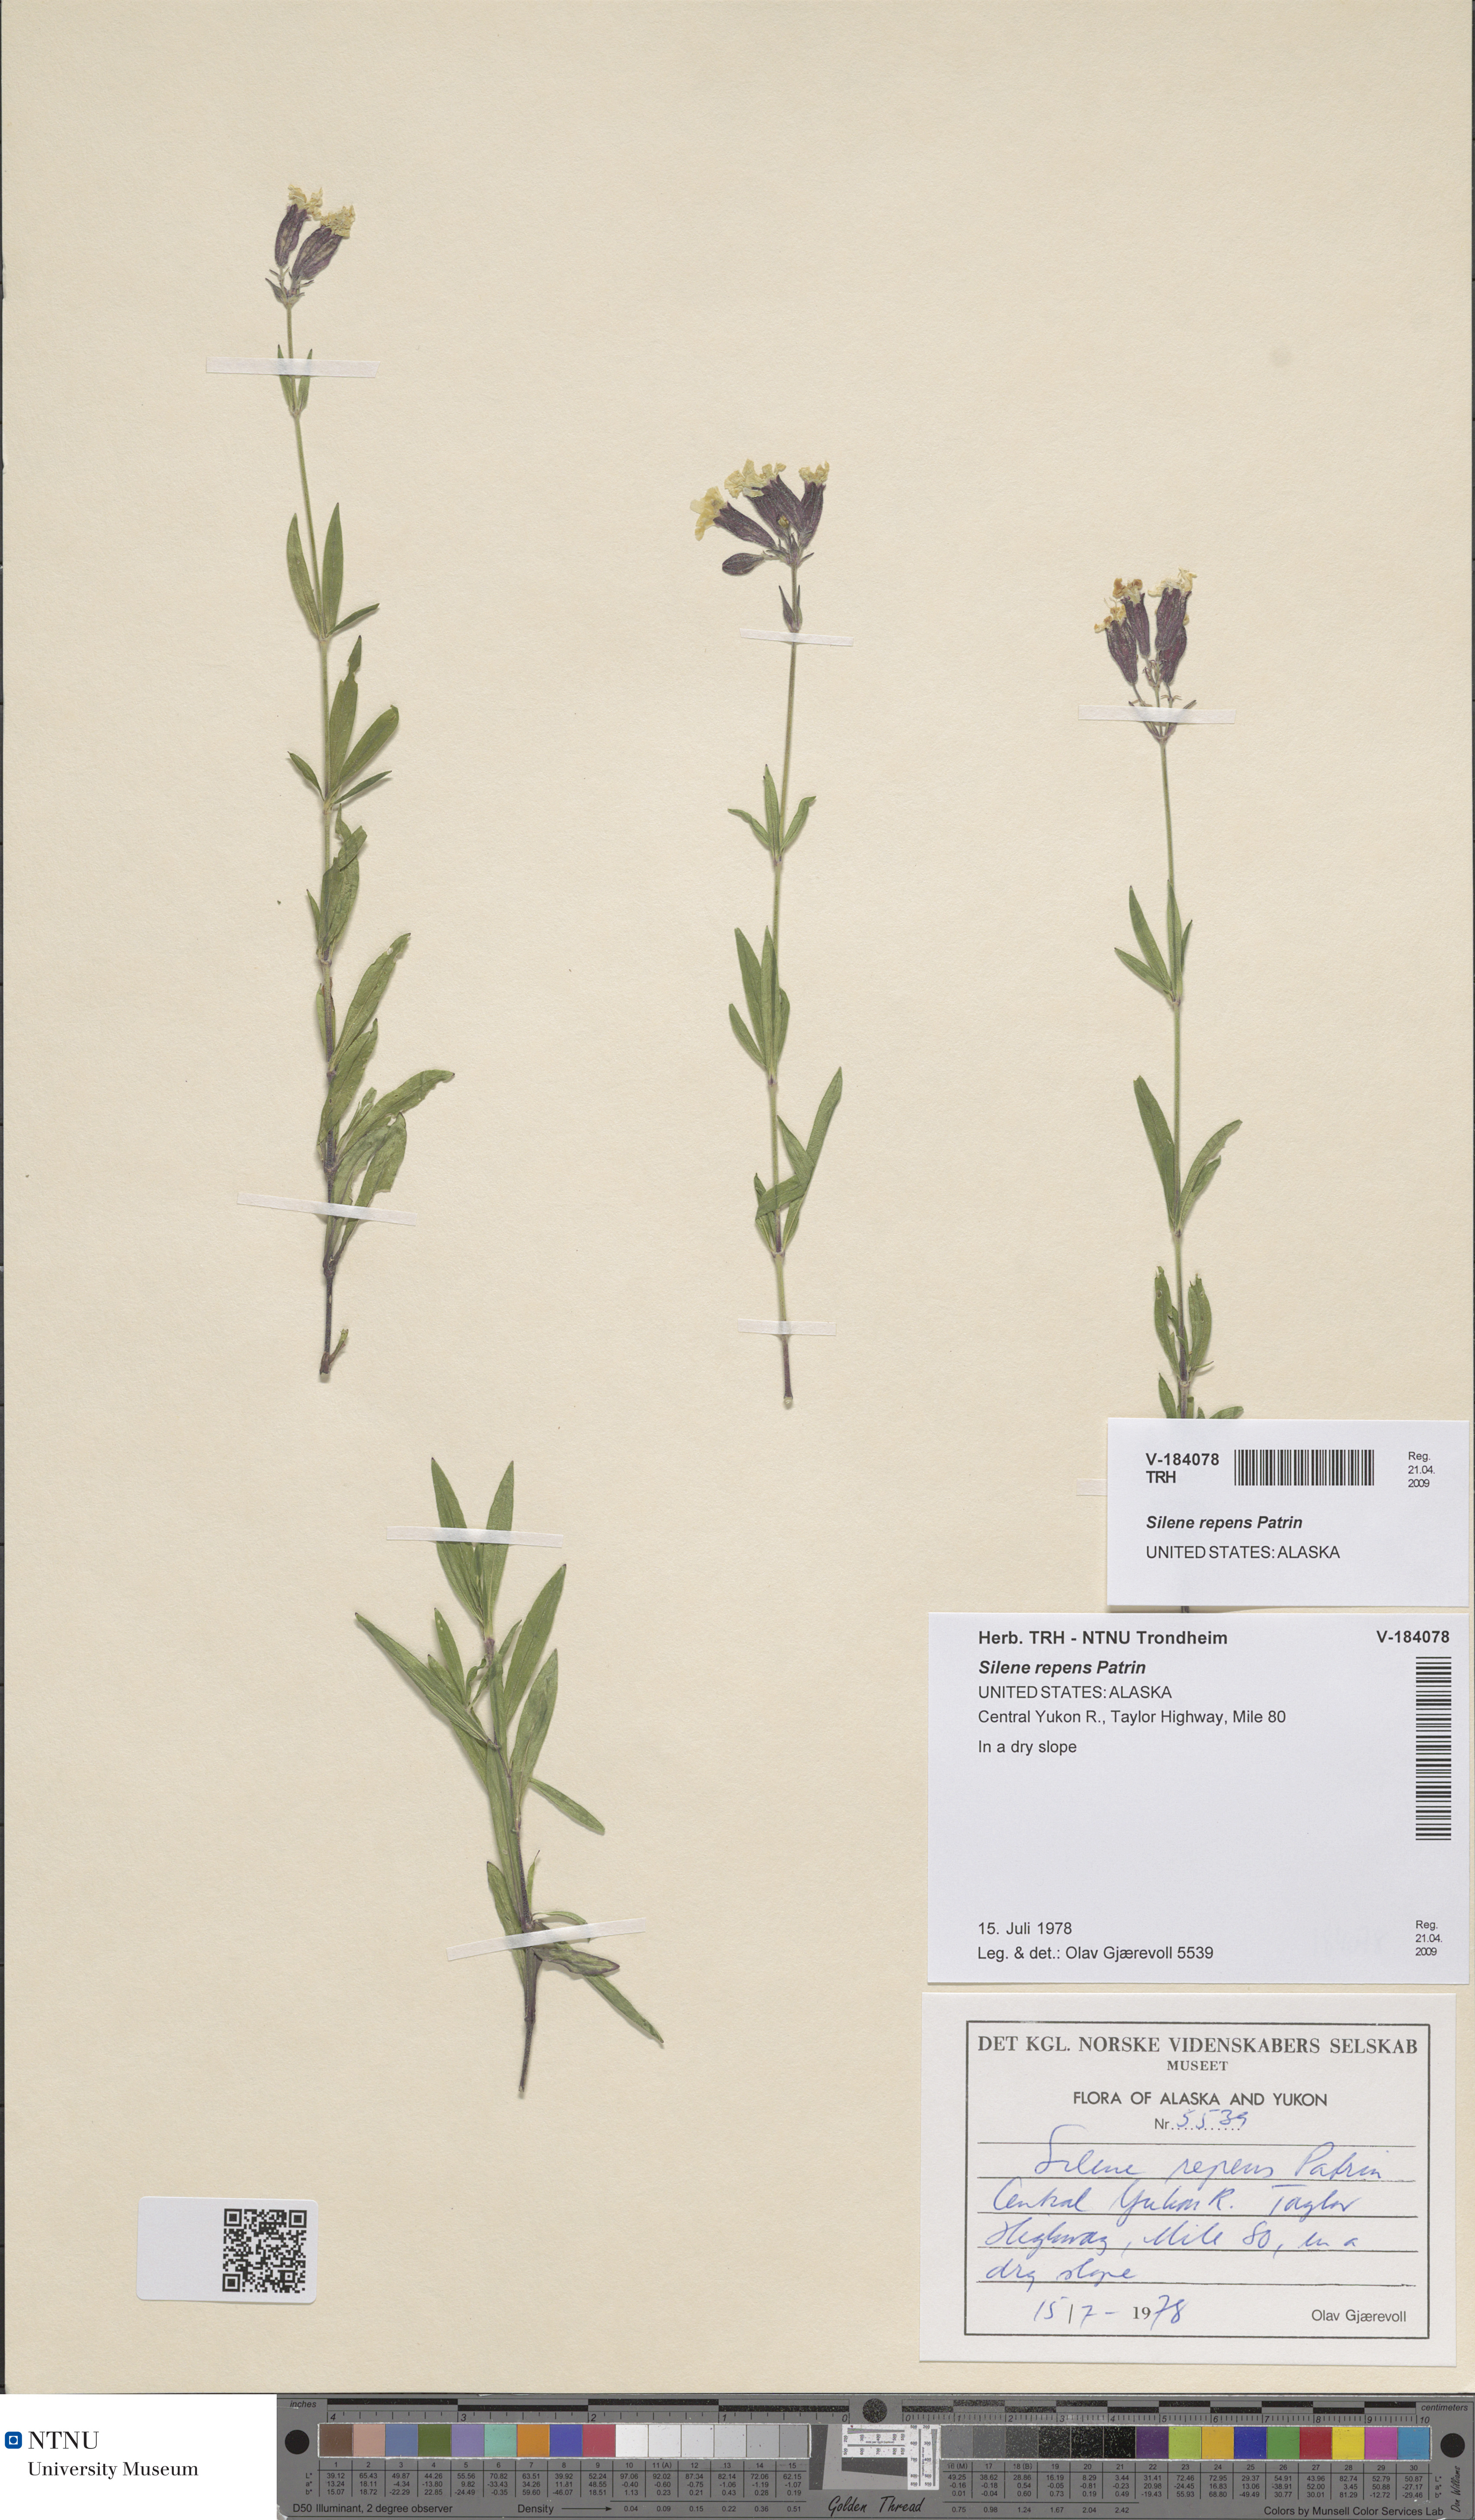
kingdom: Plantae
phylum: Tracheophyta
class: Magnoliopsida
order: Caryophyllales
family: Caryophyllaceae
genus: Silene
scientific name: Silene repens
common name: Pink campion
